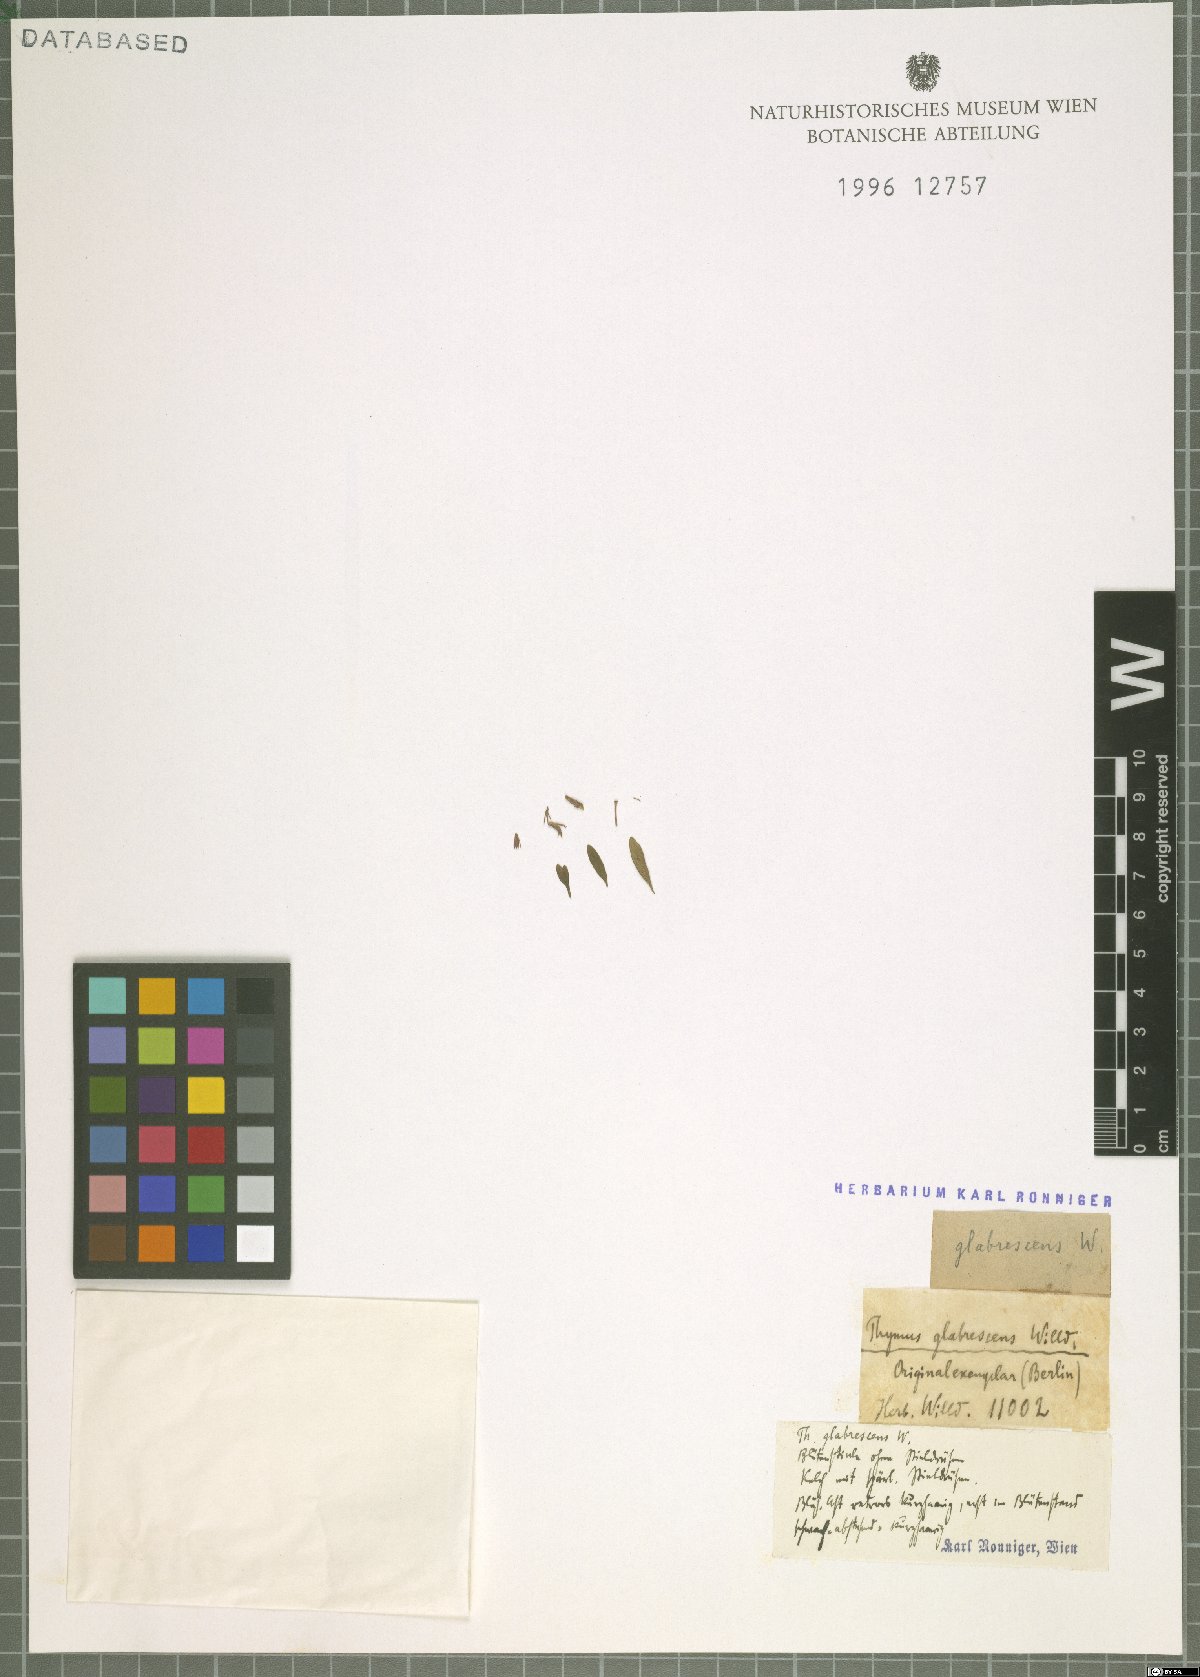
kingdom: Plantae
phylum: Tracheophyta
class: Magnoliopsida
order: Lamiales
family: Lamiaceae
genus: Thymus
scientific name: Thymus odoratissimus
